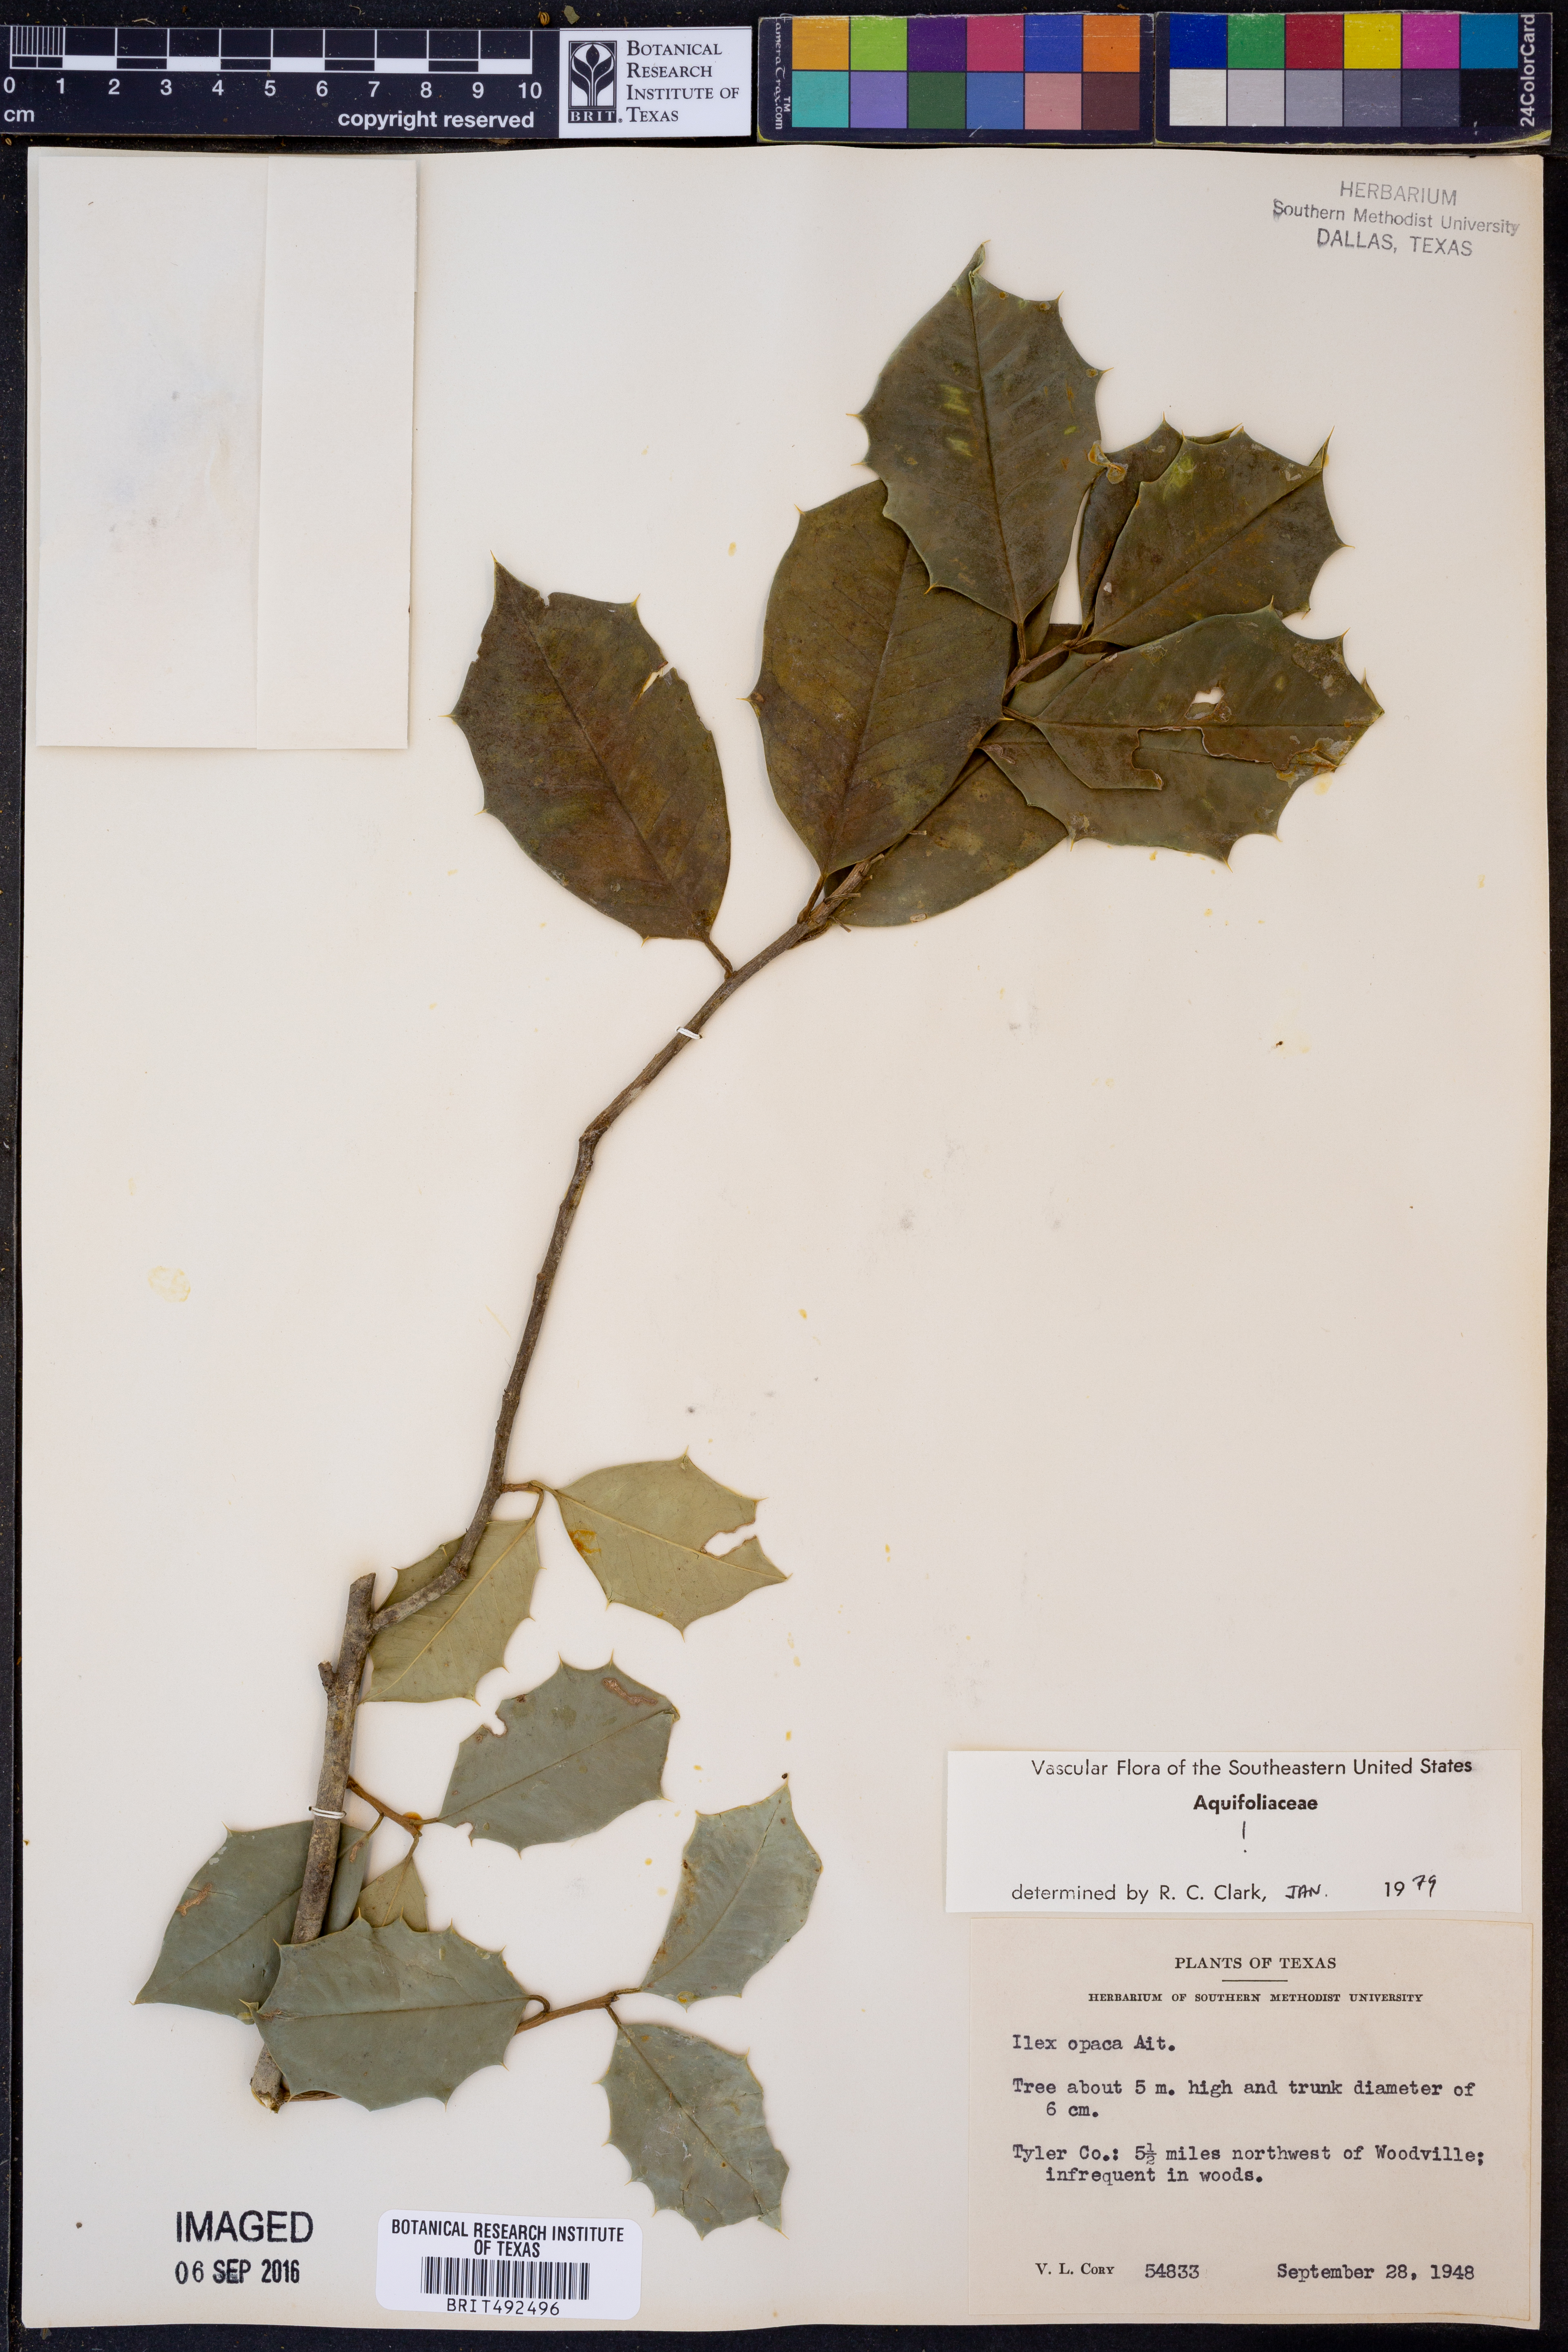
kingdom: Plantae
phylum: Tracheophyta
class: Magnoliopsida
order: Aquifoliales
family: Aquifoliaceae
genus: Ilex
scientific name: Ilex opaca
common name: American holly
